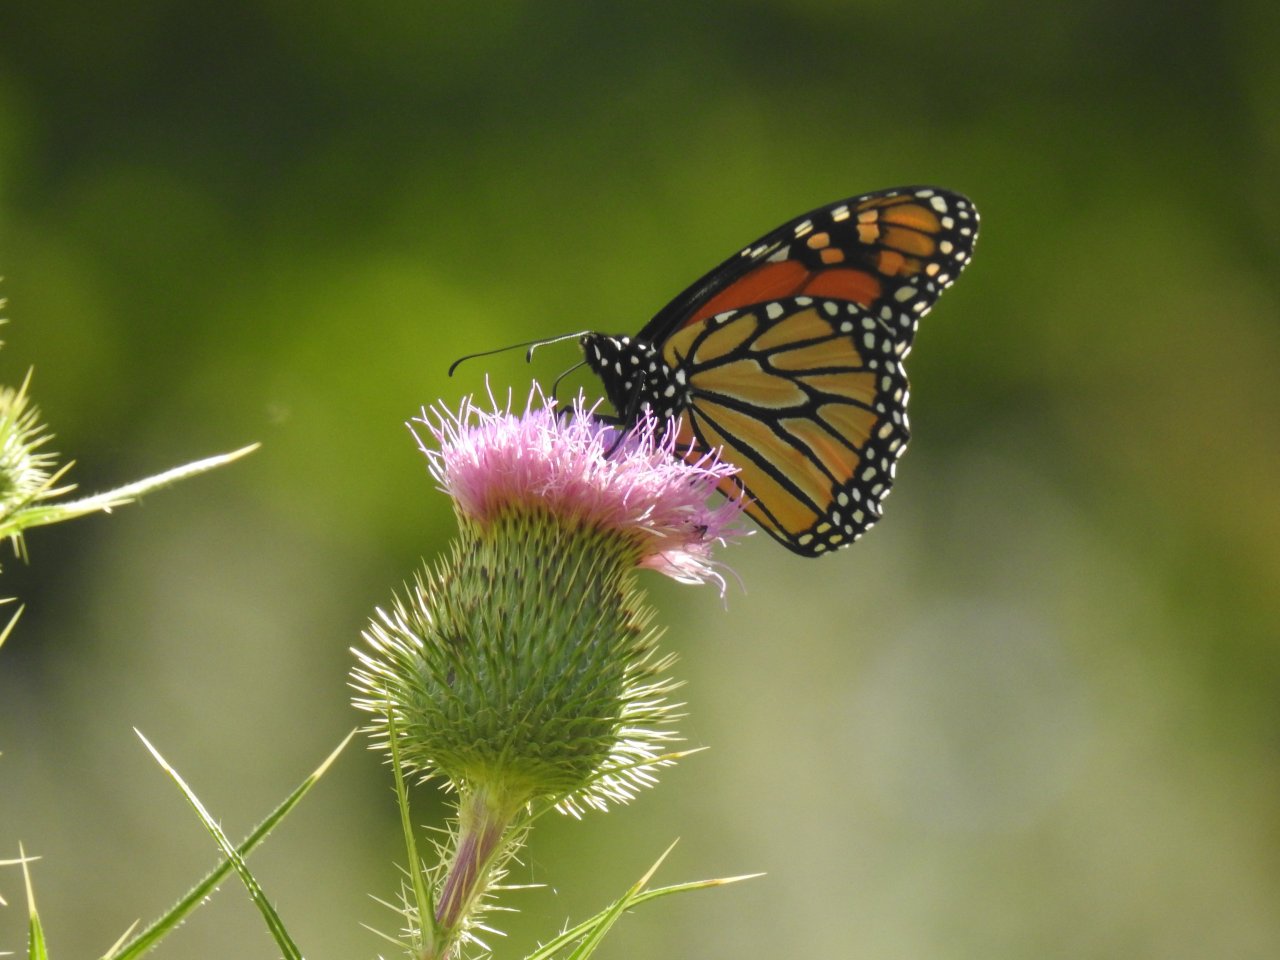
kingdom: Animalia
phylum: Arthropoda
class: Insecta
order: Lepidoptera
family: Nymphalidae
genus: Danaus
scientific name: Danaus plexippus
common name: Monarch
